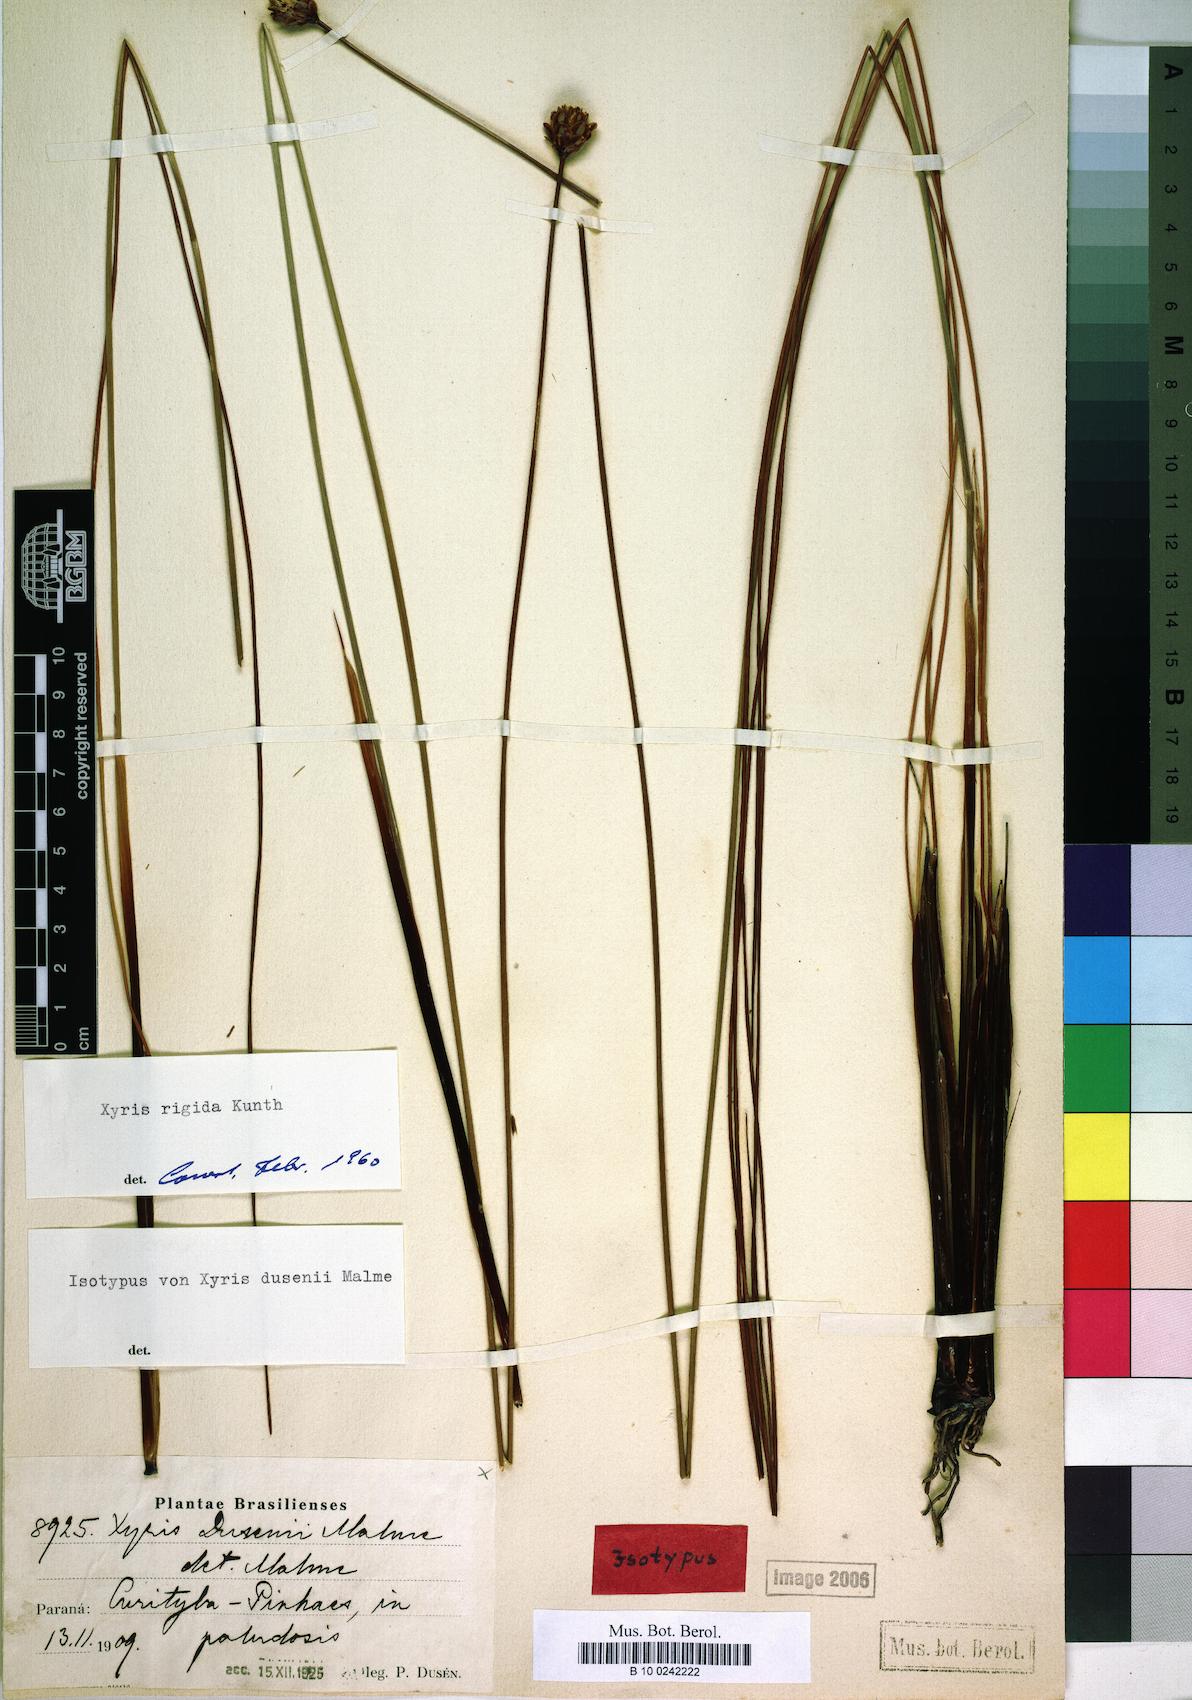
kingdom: Plantae
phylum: Tracheophyta
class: Liliopsida
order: Poales
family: Xyridaceae
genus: Xyris
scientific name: Xyris rigida
